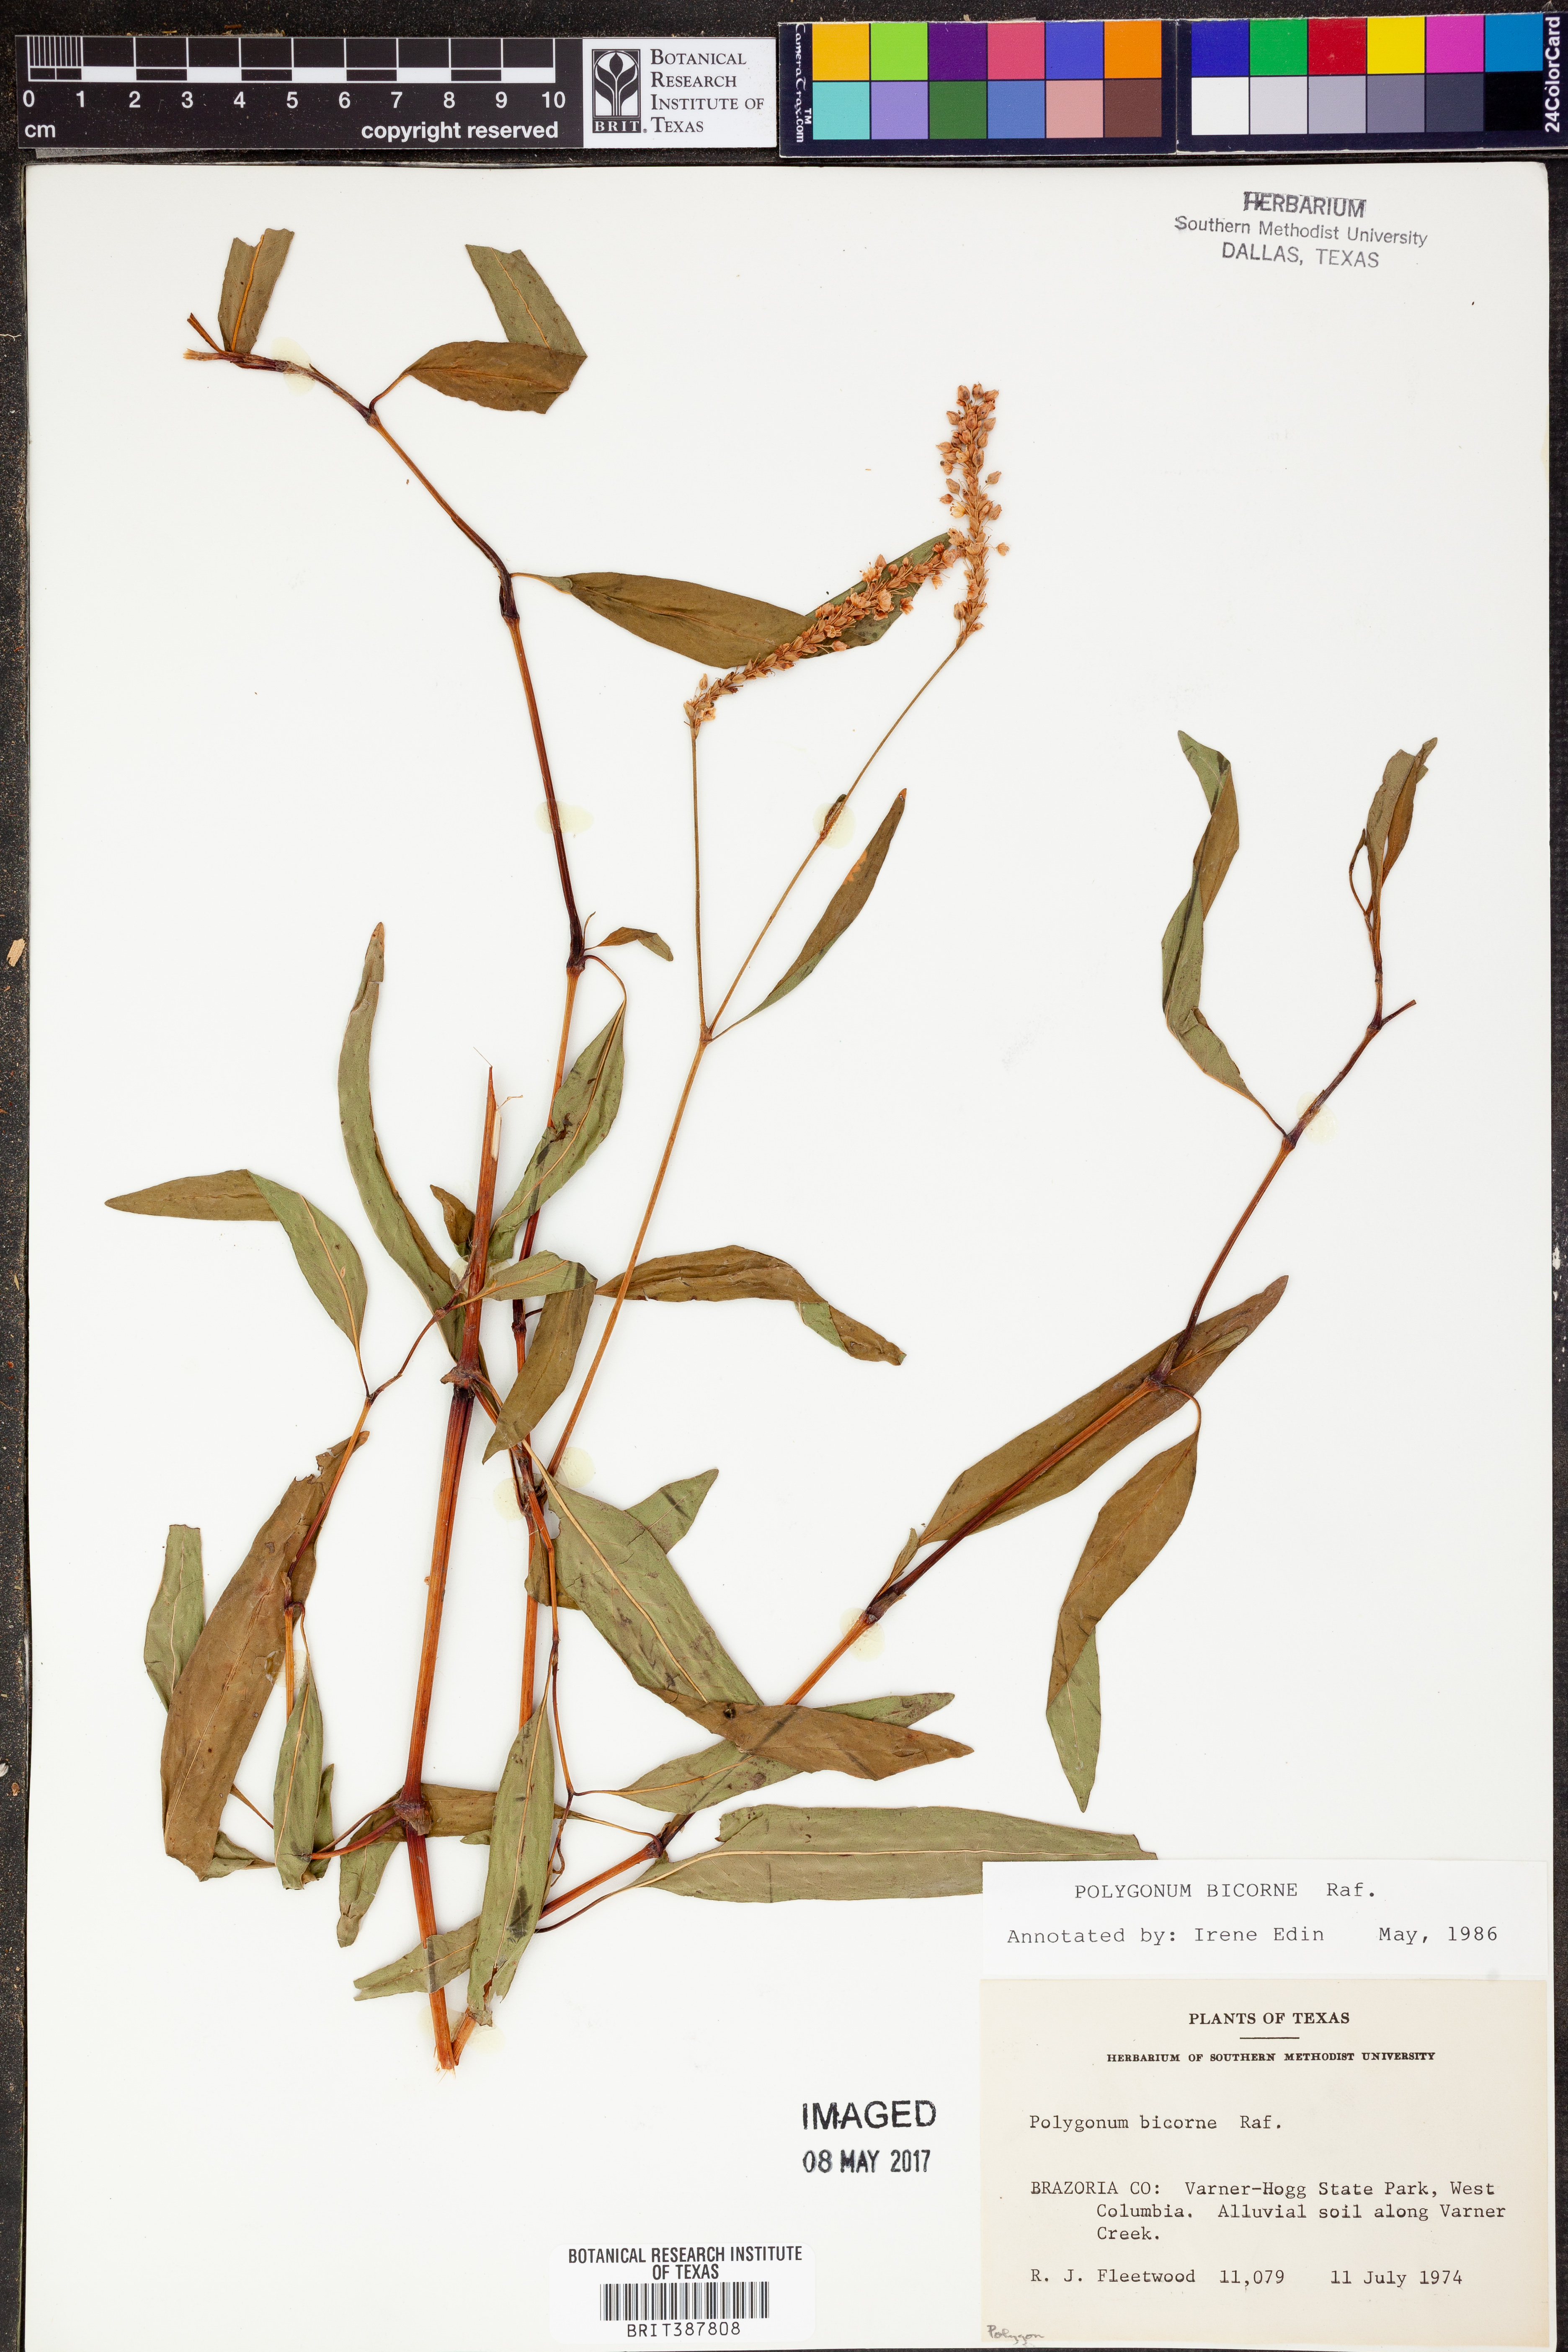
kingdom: Plantae
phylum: Tracheophyta
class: Magnoliopsida
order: Caryophyllales
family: Polygonaceae
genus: Persicaria
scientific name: Persicaria bicornis
